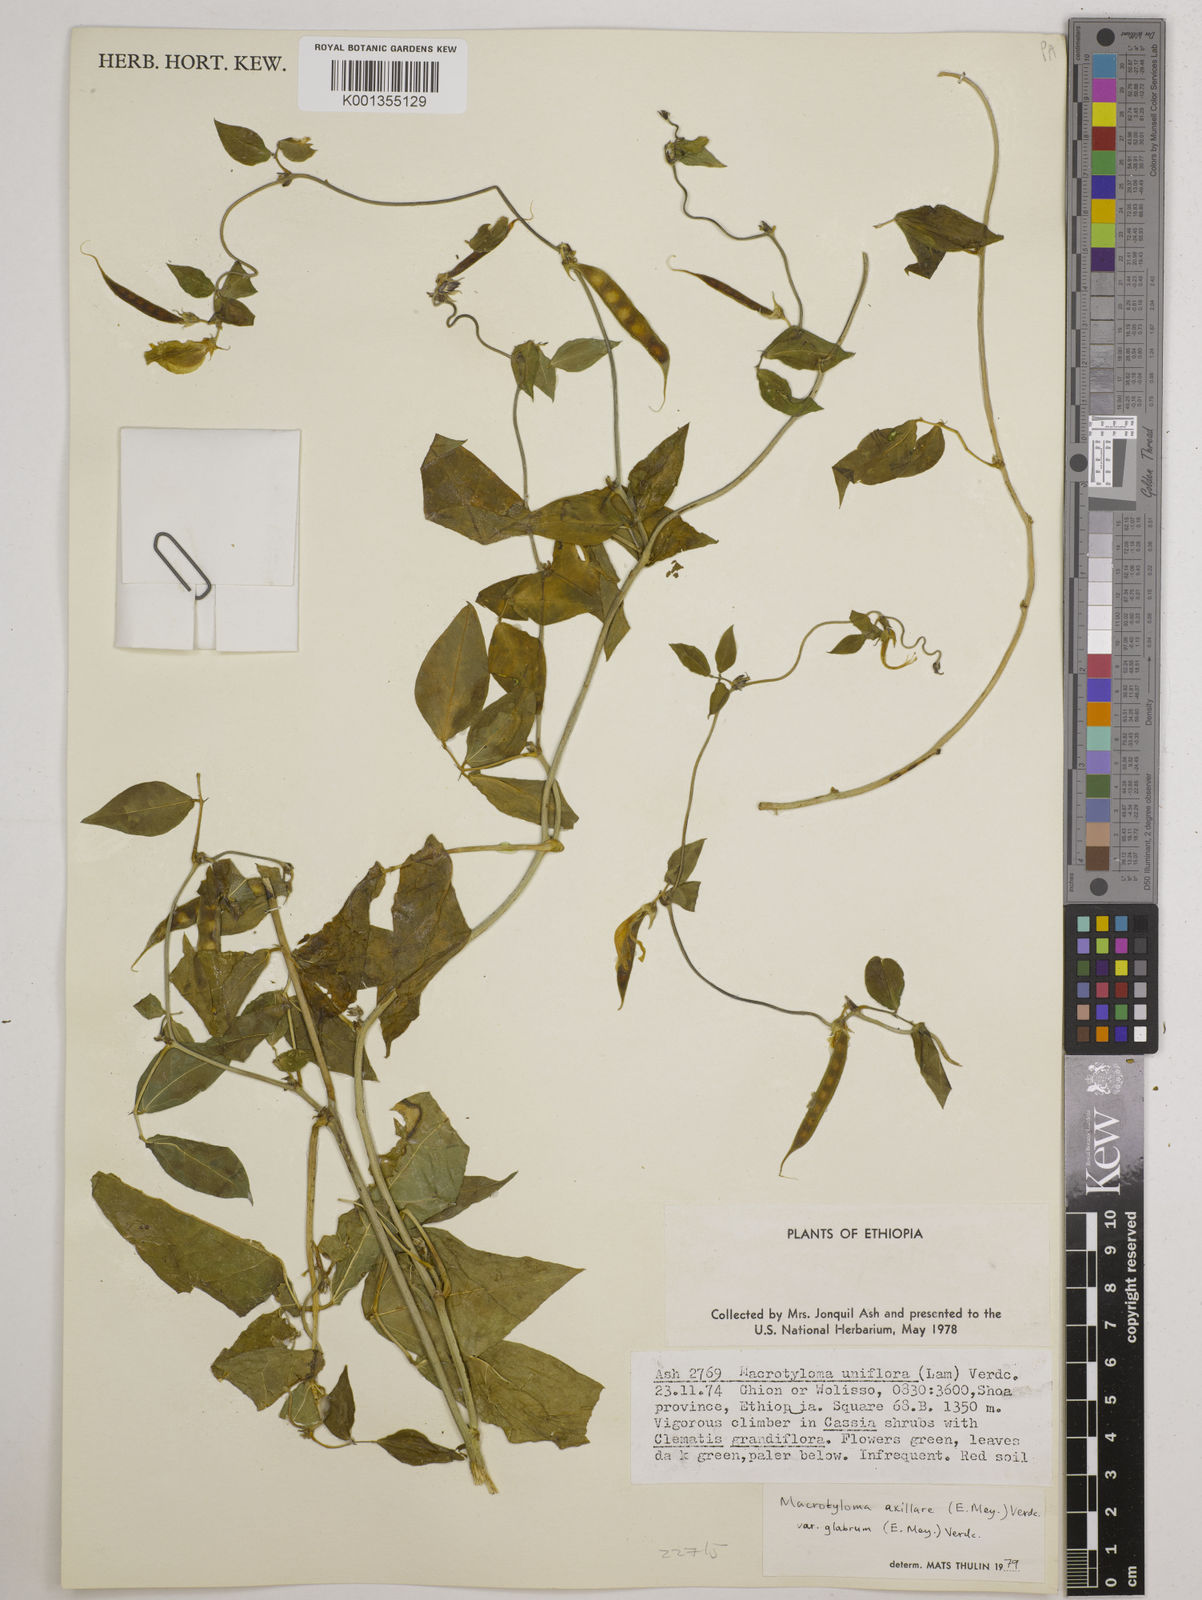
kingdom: Plantae
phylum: Tracheophyta
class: Magnoliopsida
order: Fabales
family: Fabaceae
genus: Macrotyloma
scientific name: Macrotyloma
